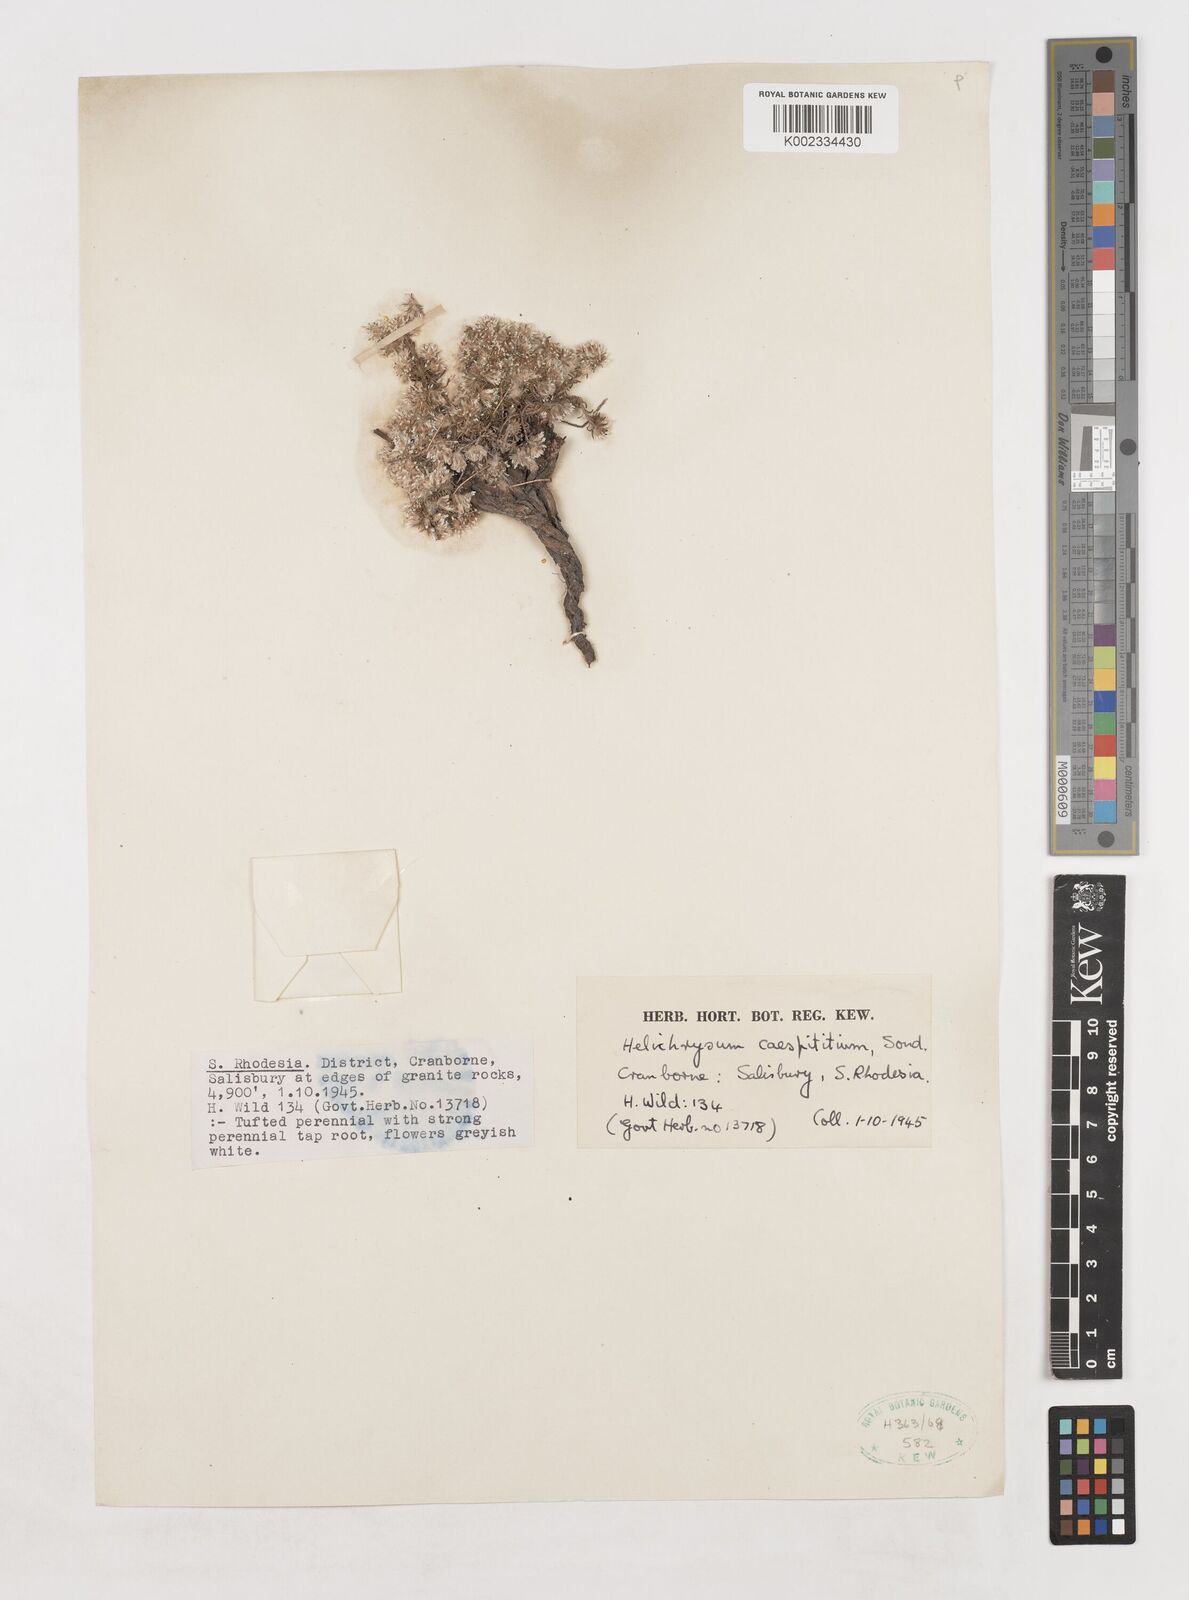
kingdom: Plantae
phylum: Tracheophyta
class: Magnoliopsida
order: Asterales
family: Asteraceae
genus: Helichrysum
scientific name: Helichrysum caespititium
